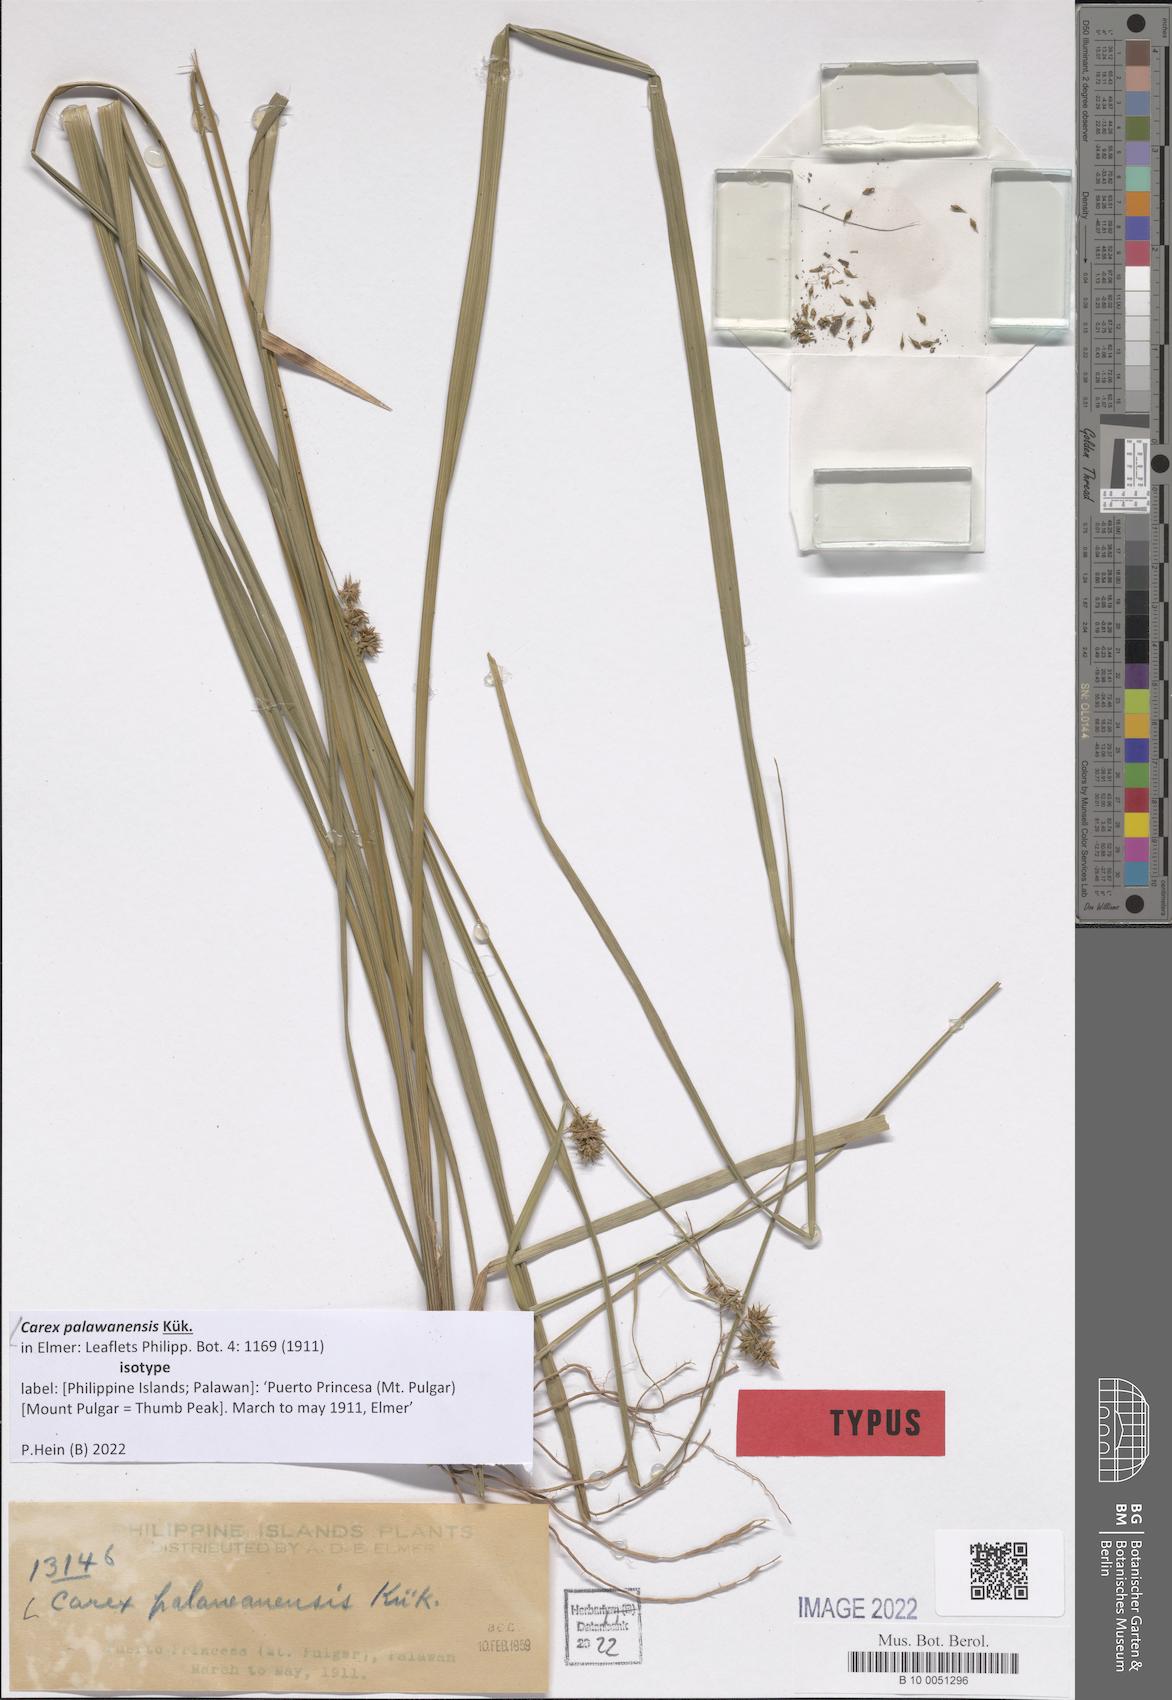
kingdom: Plantae
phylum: Tracheophyta
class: Liliopsida
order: Poales
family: Cyperaceae
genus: Carex
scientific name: Carex palawanensis
